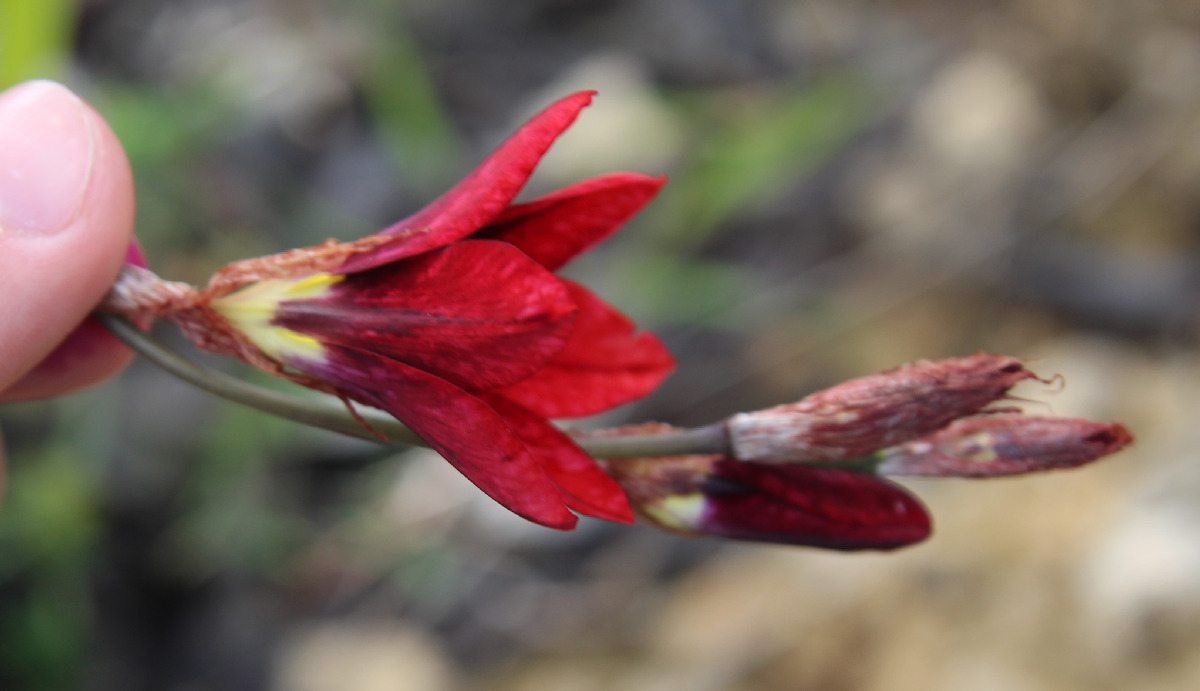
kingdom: Plantae
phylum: Tracheophyta
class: Liliopsida
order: Asparagales
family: Iridaceae
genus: Sparaxis
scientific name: Sparaxis tricolor
